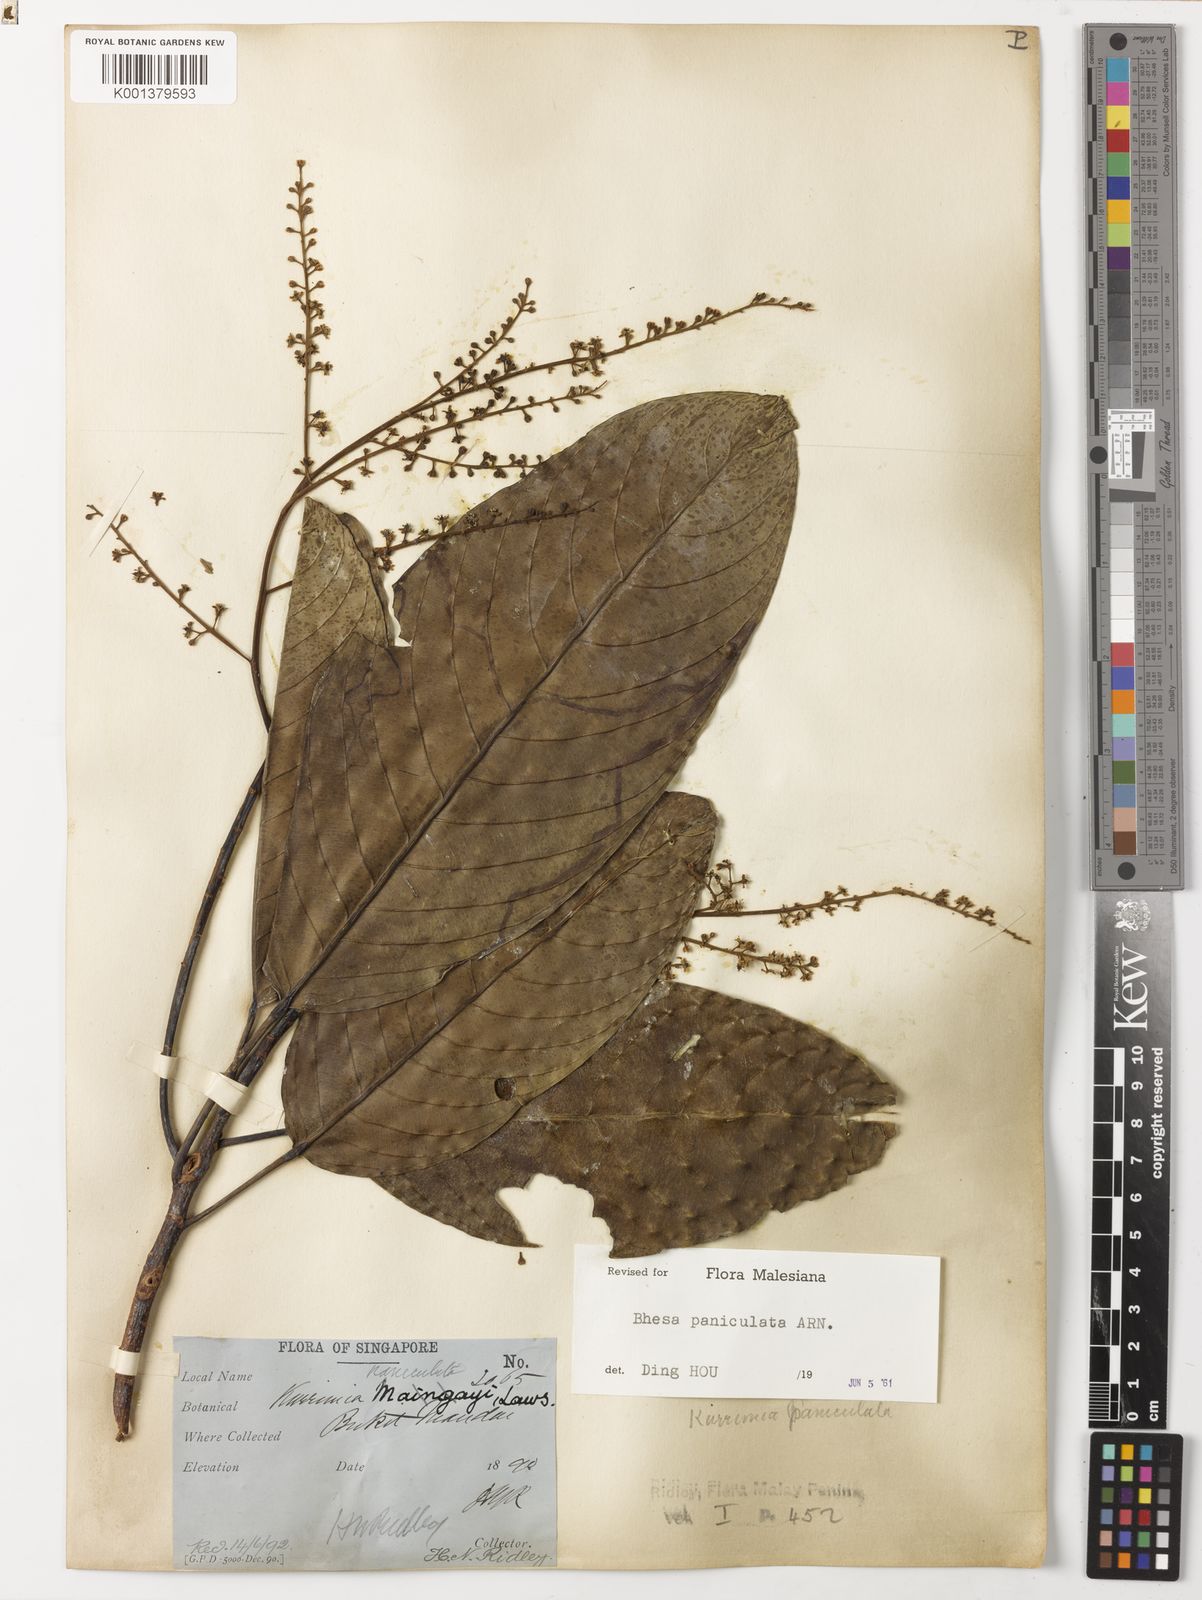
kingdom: Plantae
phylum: Tracheophyta
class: Magnoliopsida
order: Malpighiales
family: Centroplacaceae
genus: Bhesa
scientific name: Bhesa paniculata
